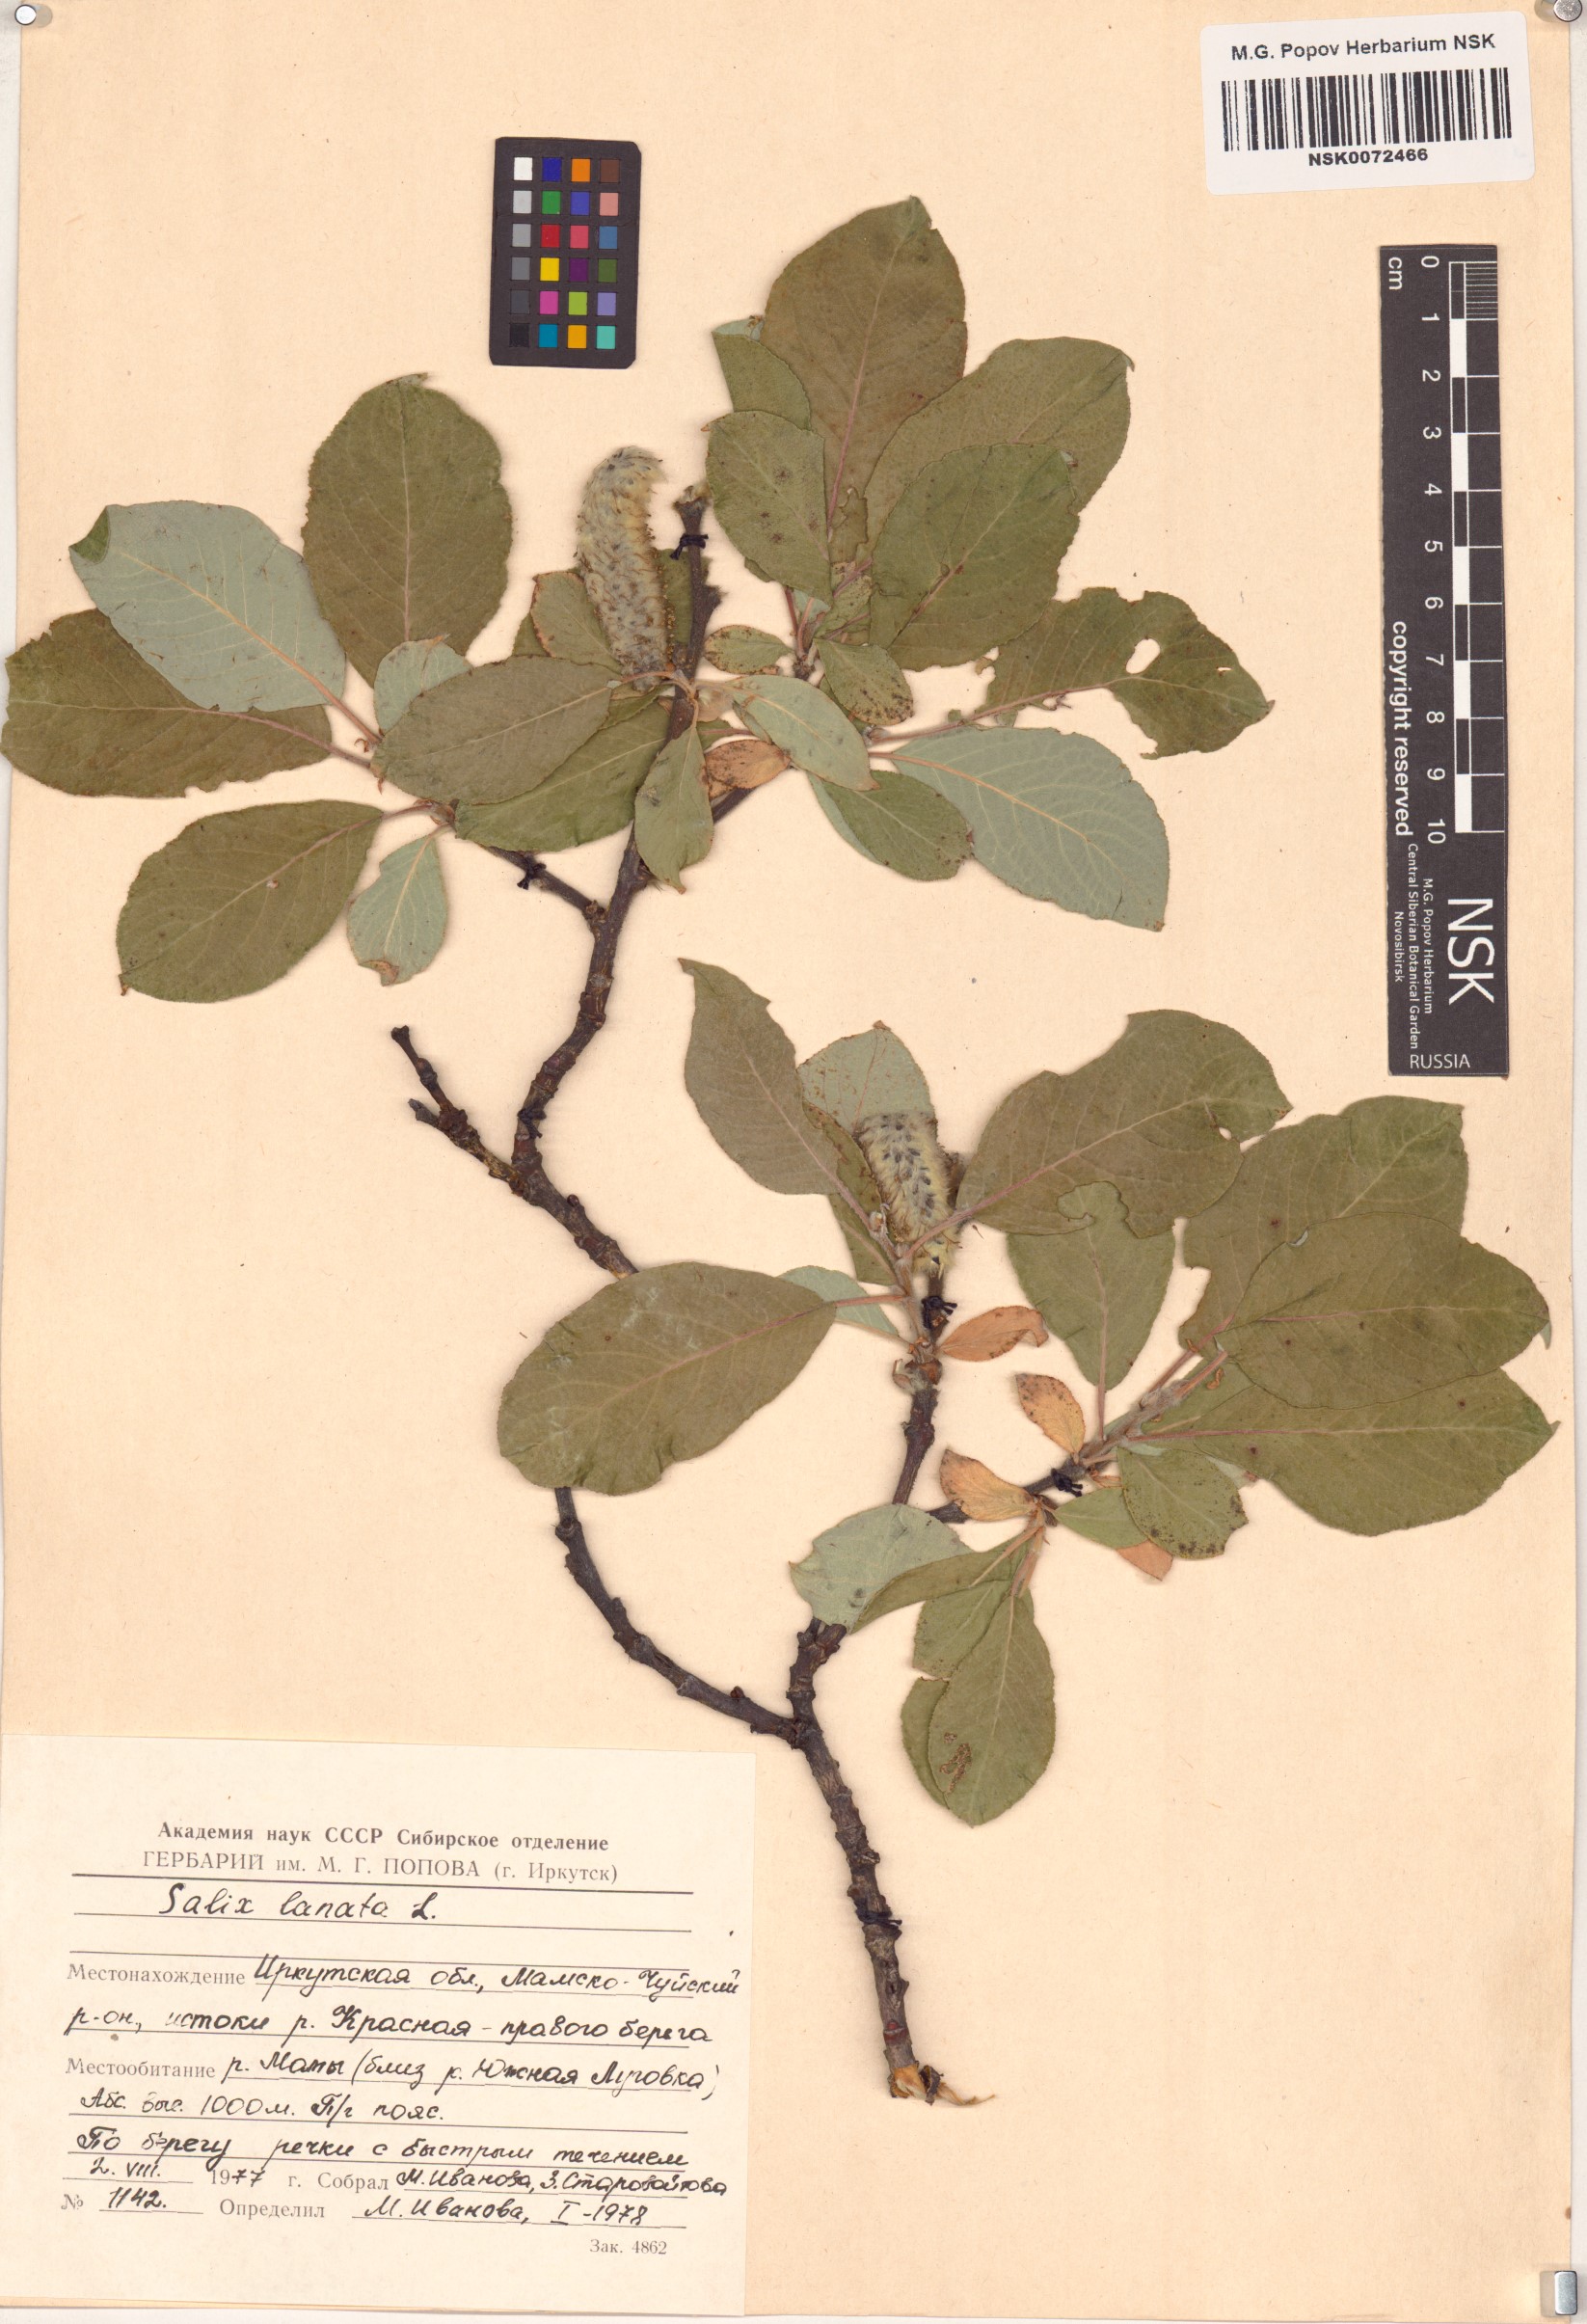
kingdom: Plantae
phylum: Tracheophyta
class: Magnoliopsida
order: Malpighiales
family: Salicaceae
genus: Salix
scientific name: Salix lanata
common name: Woolly willow
